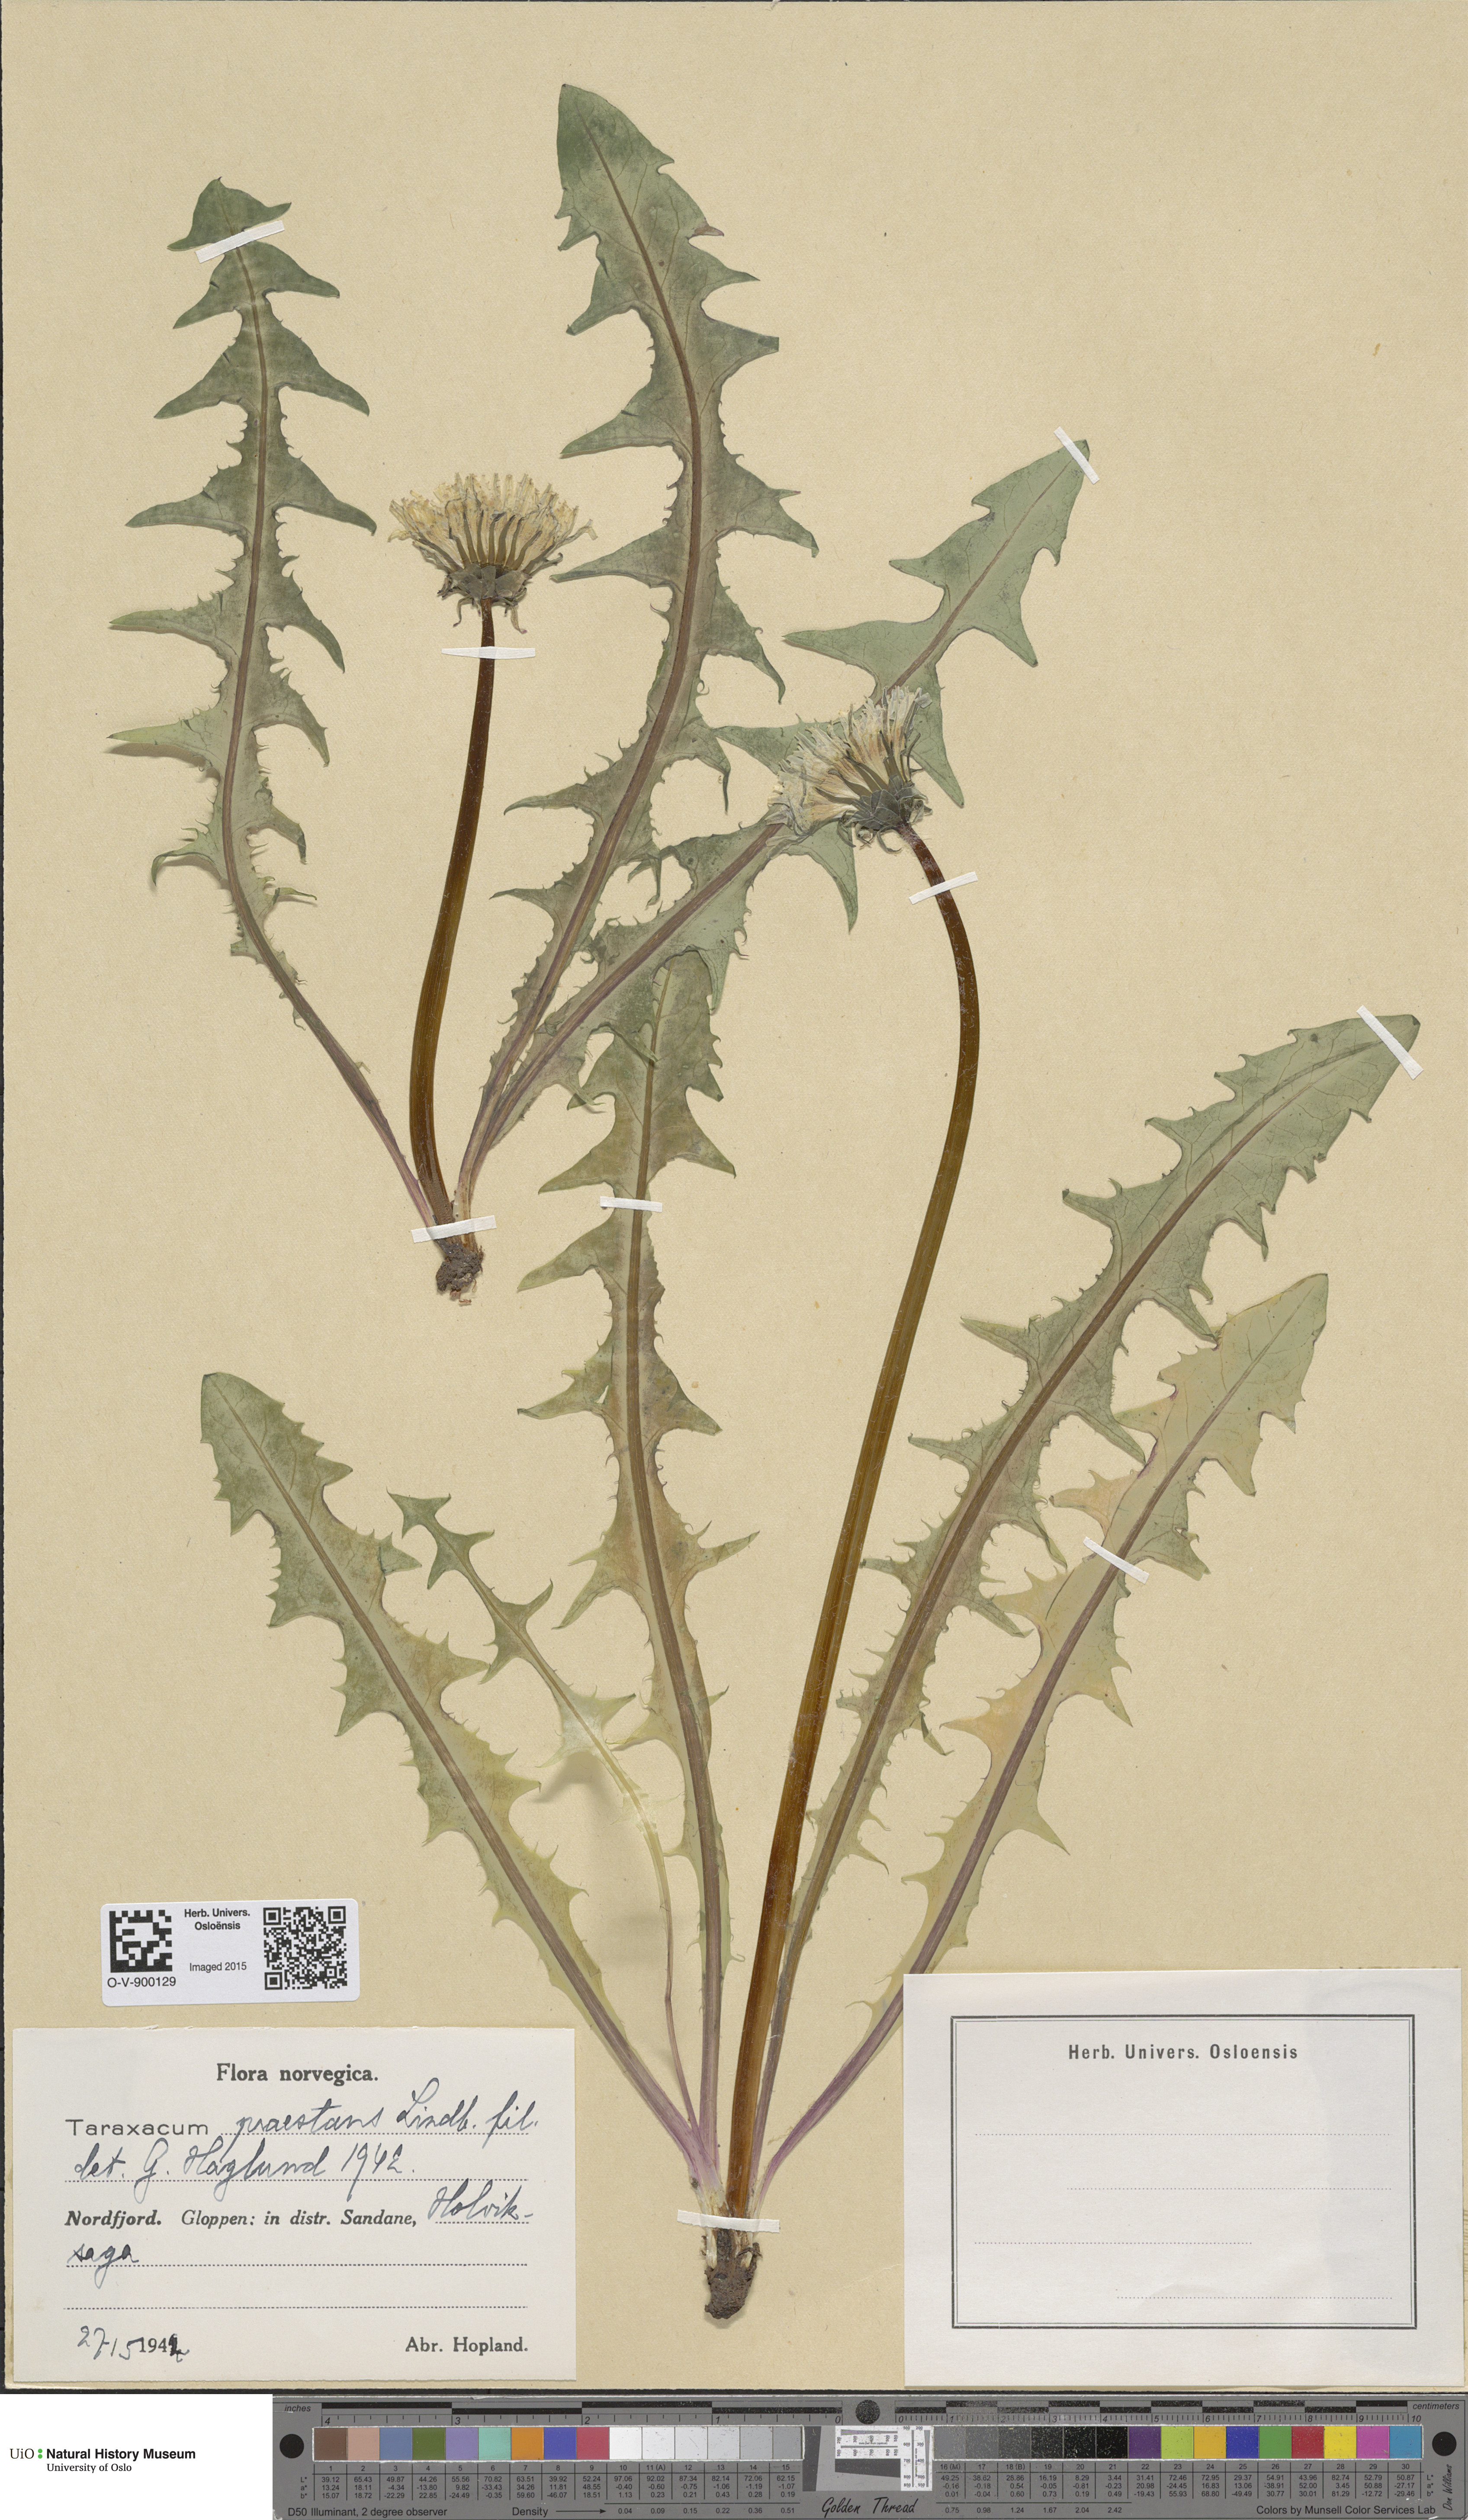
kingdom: Plantae
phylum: Tracheophyta
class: Magnoliopsida
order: Asterales
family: Asteraceae
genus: Taraxacum
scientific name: Taraxacum praestans
